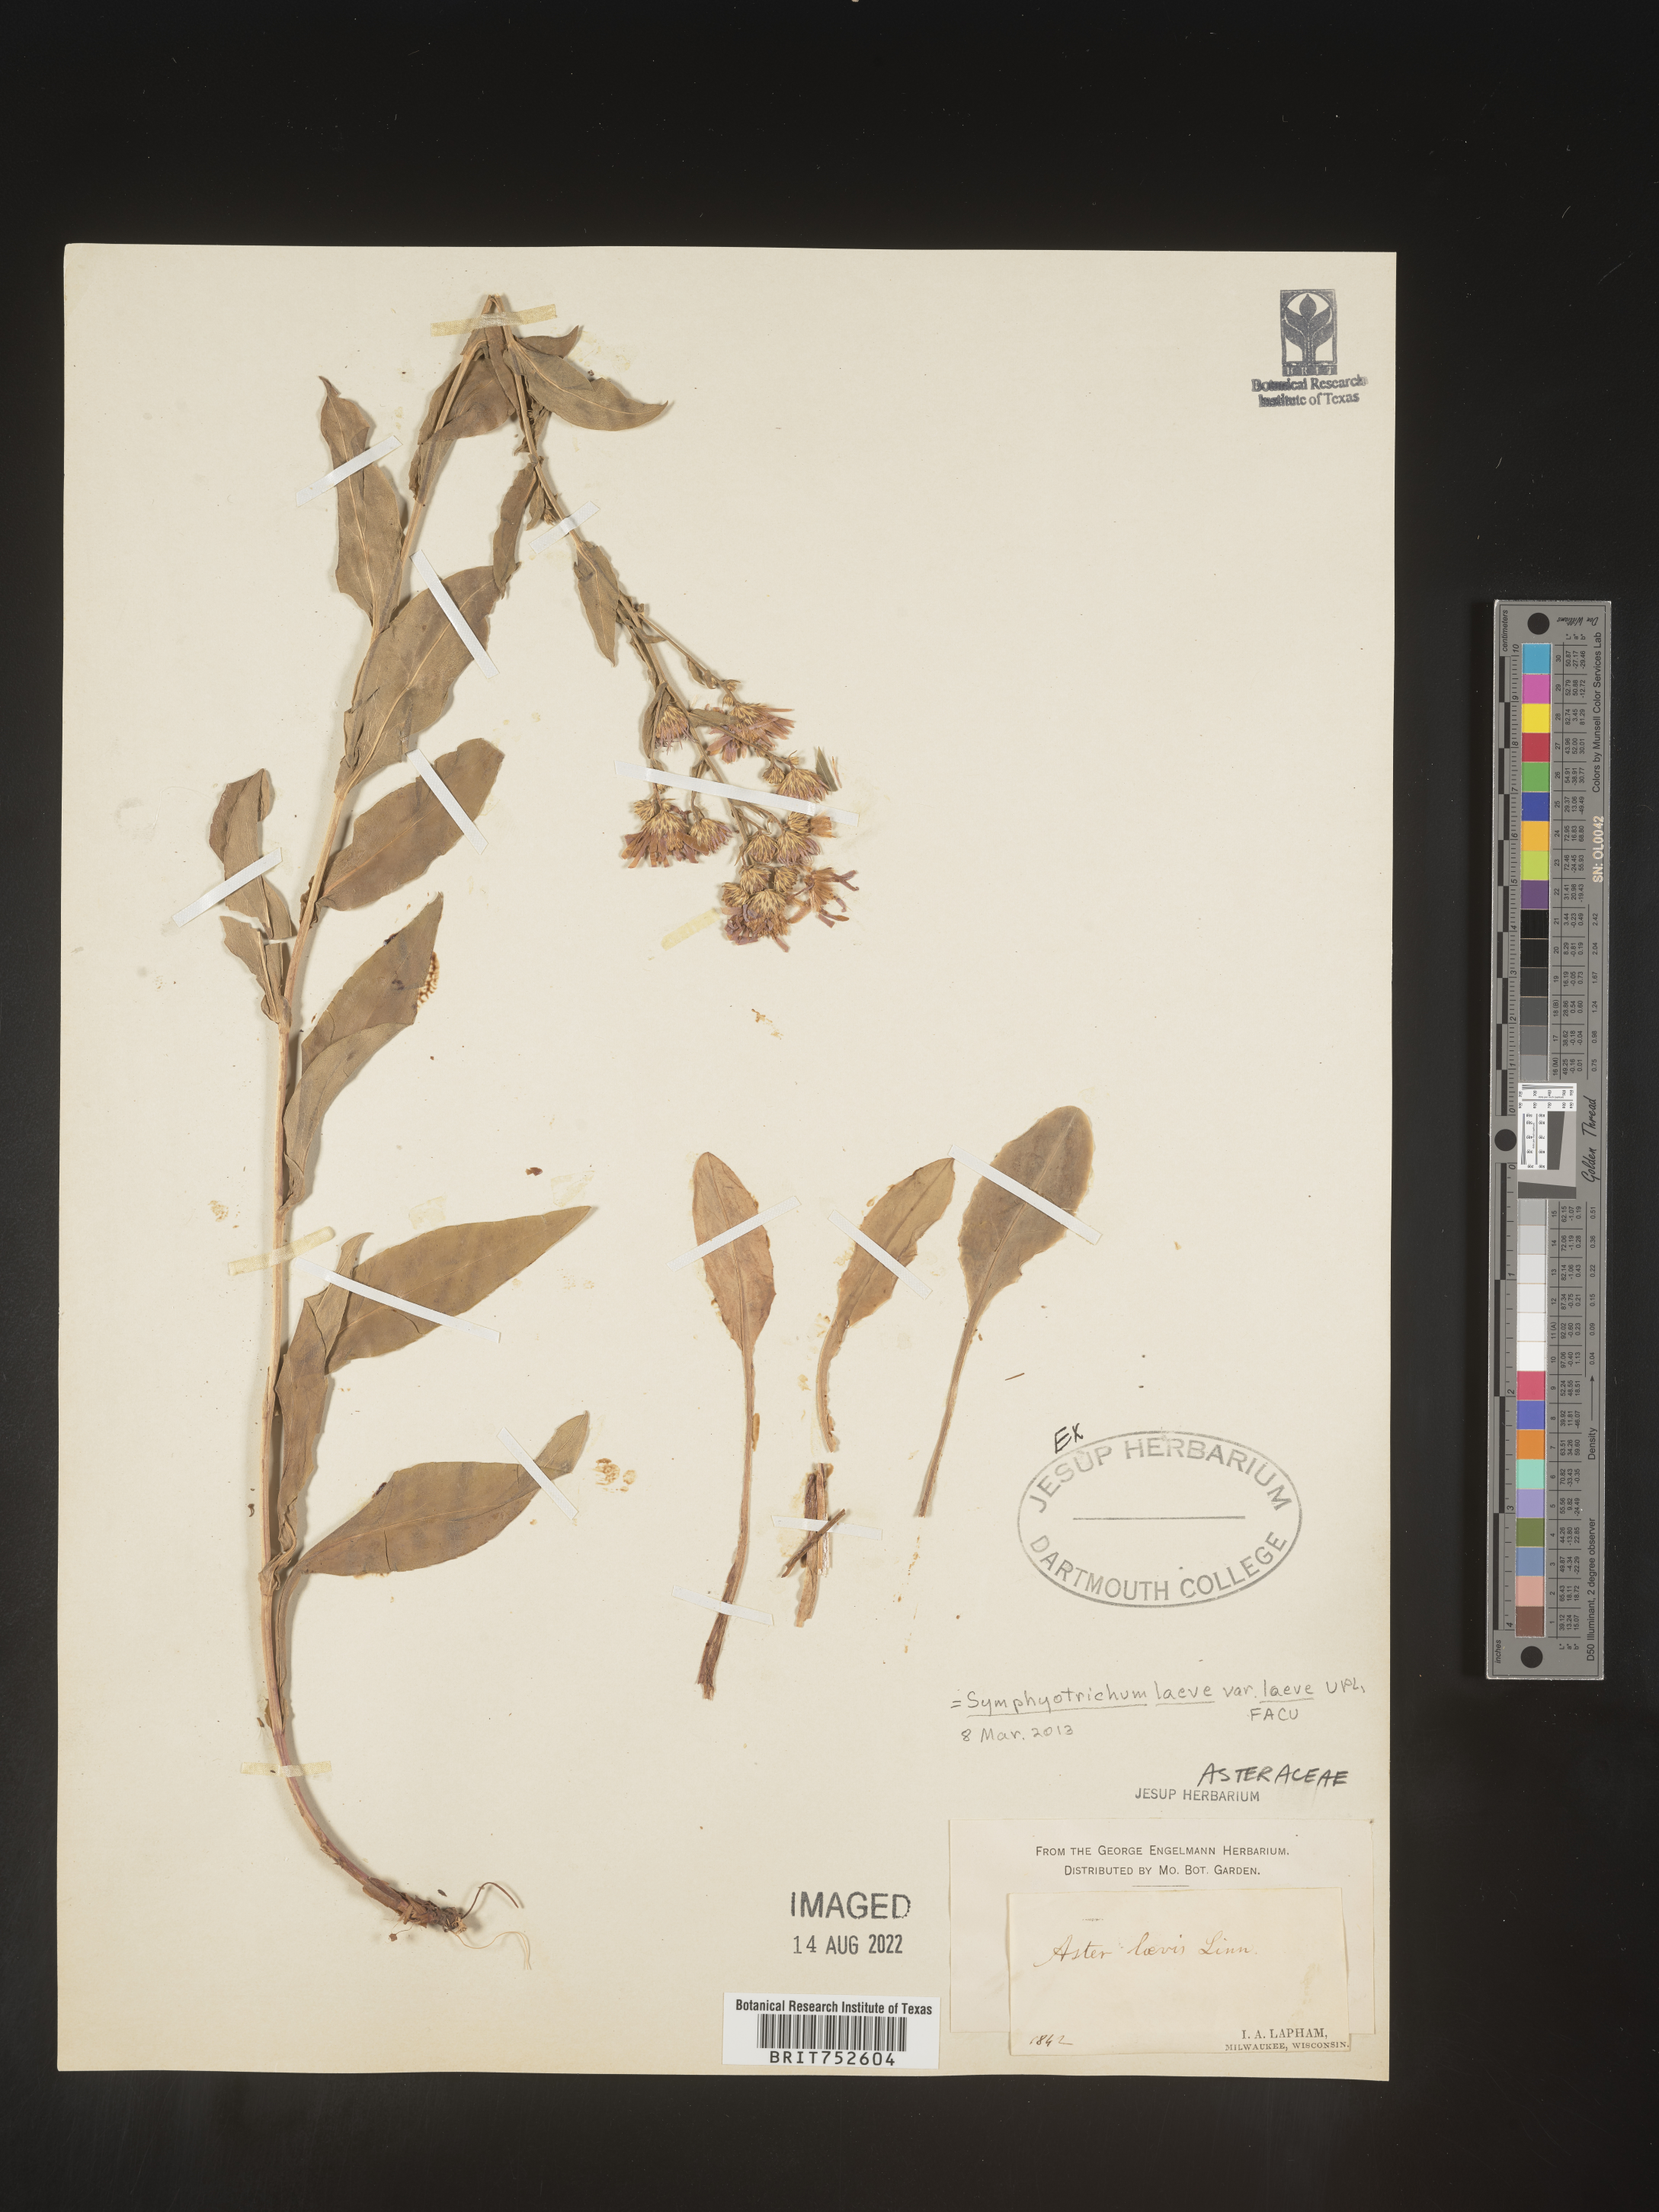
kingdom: Plantae
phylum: Tracheophyta
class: Magnoliopsida
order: Asterales
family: Asteraceae
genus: Symphyotrichum
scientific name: Symphyotrichum laeve
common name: Glaucous aster
